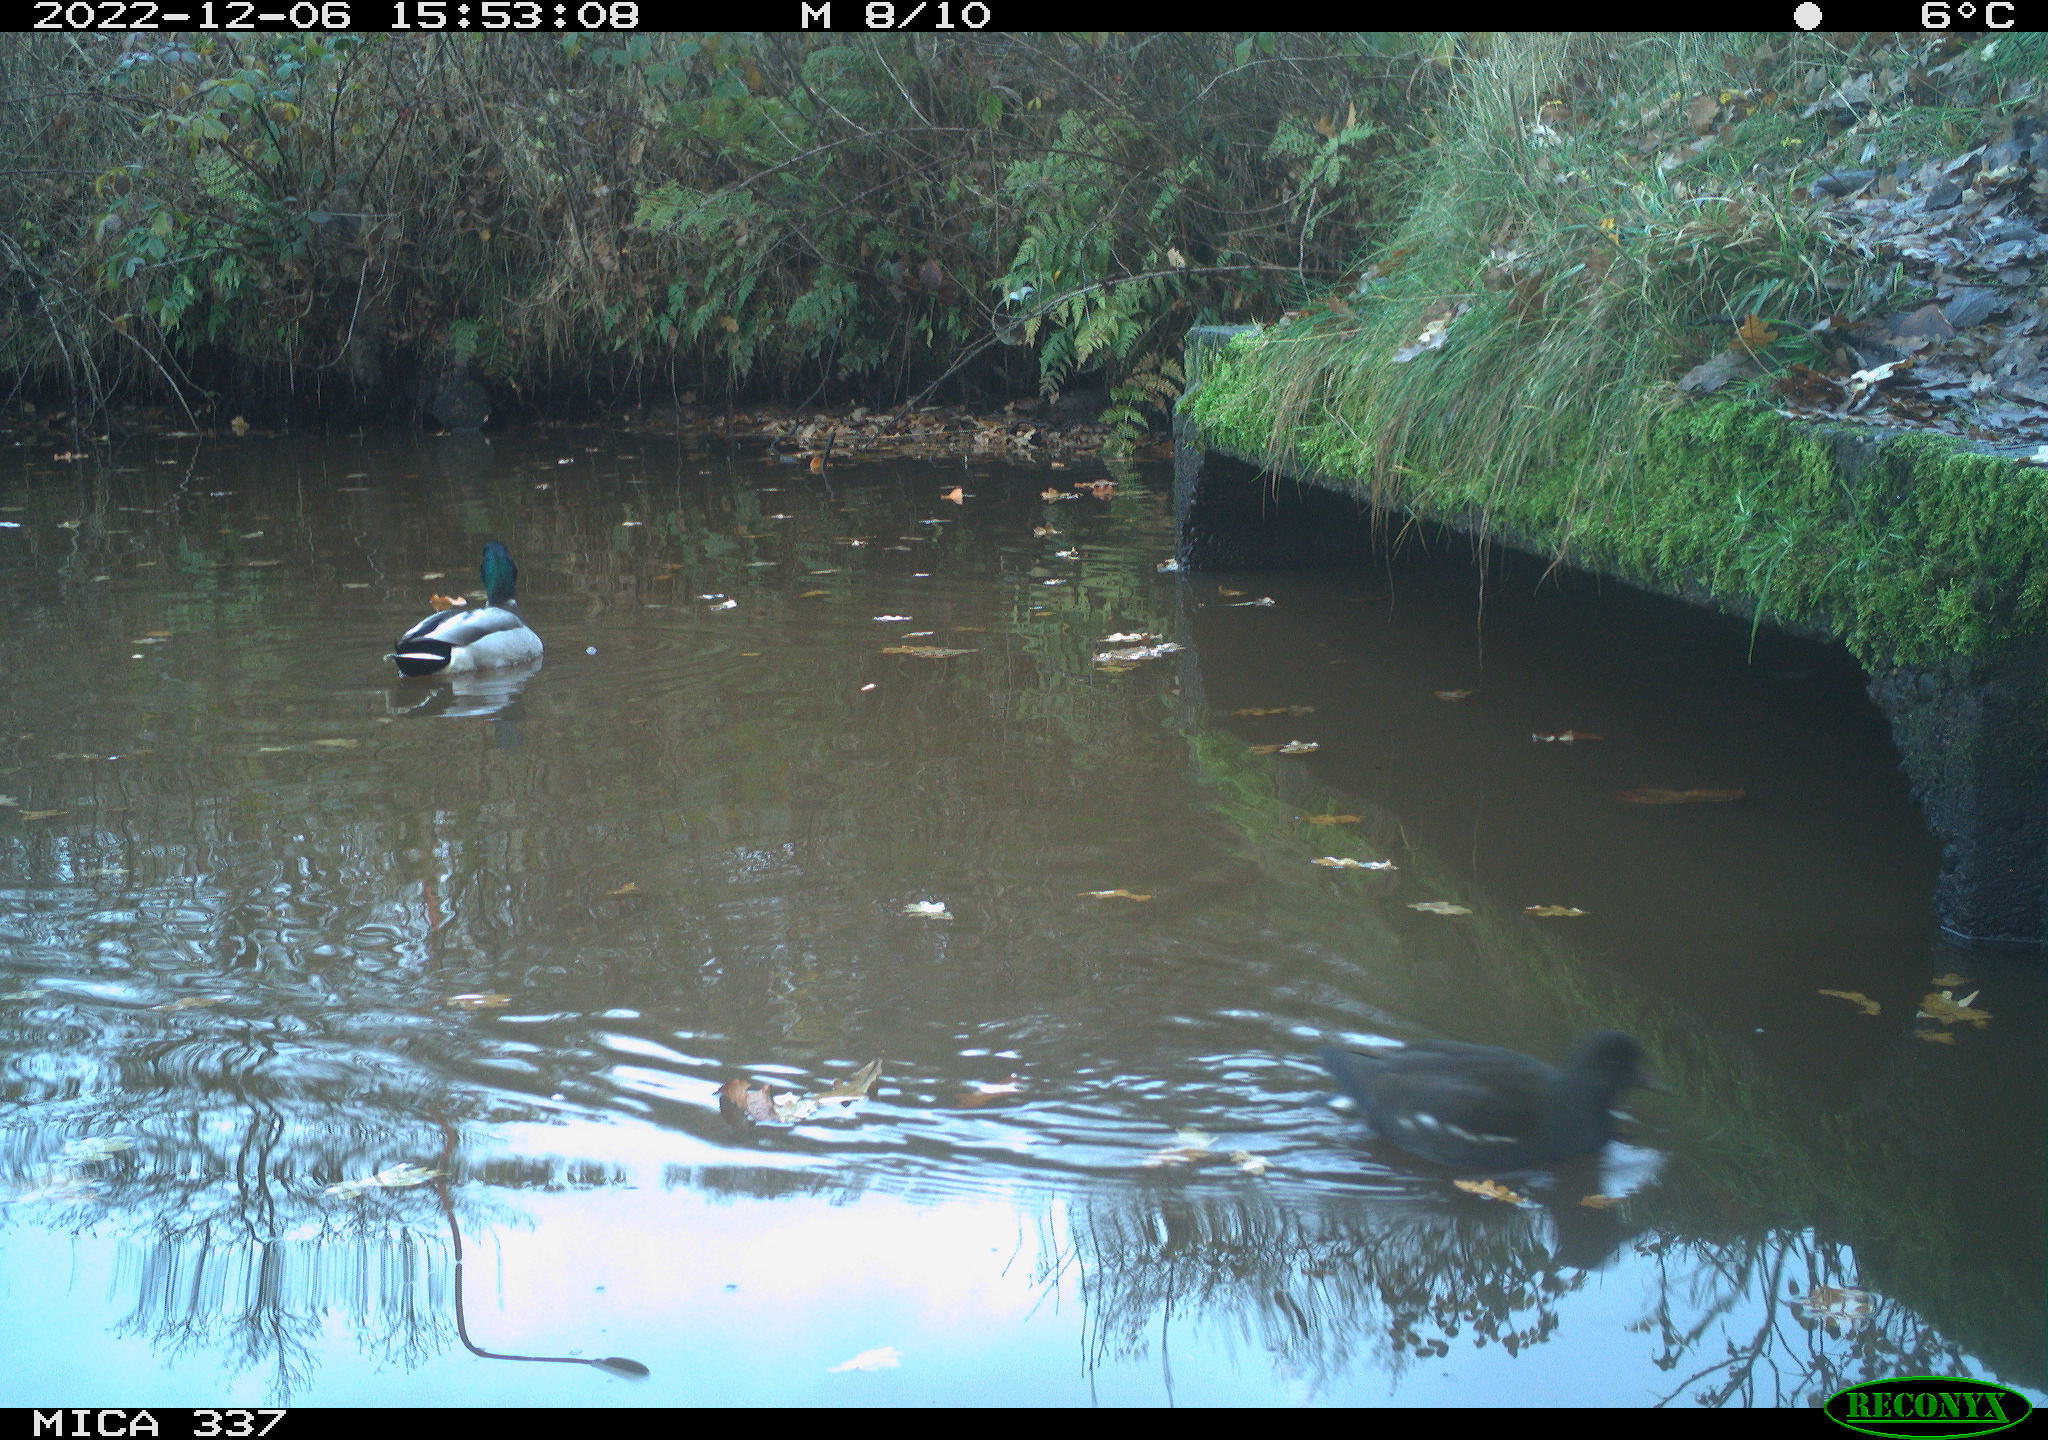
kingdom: Animalia
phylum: Chordata
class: Aves
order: Gruiformes
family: Rallidae
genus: Gallinula
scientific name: Gallinula chloropus
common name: Common moorhen
